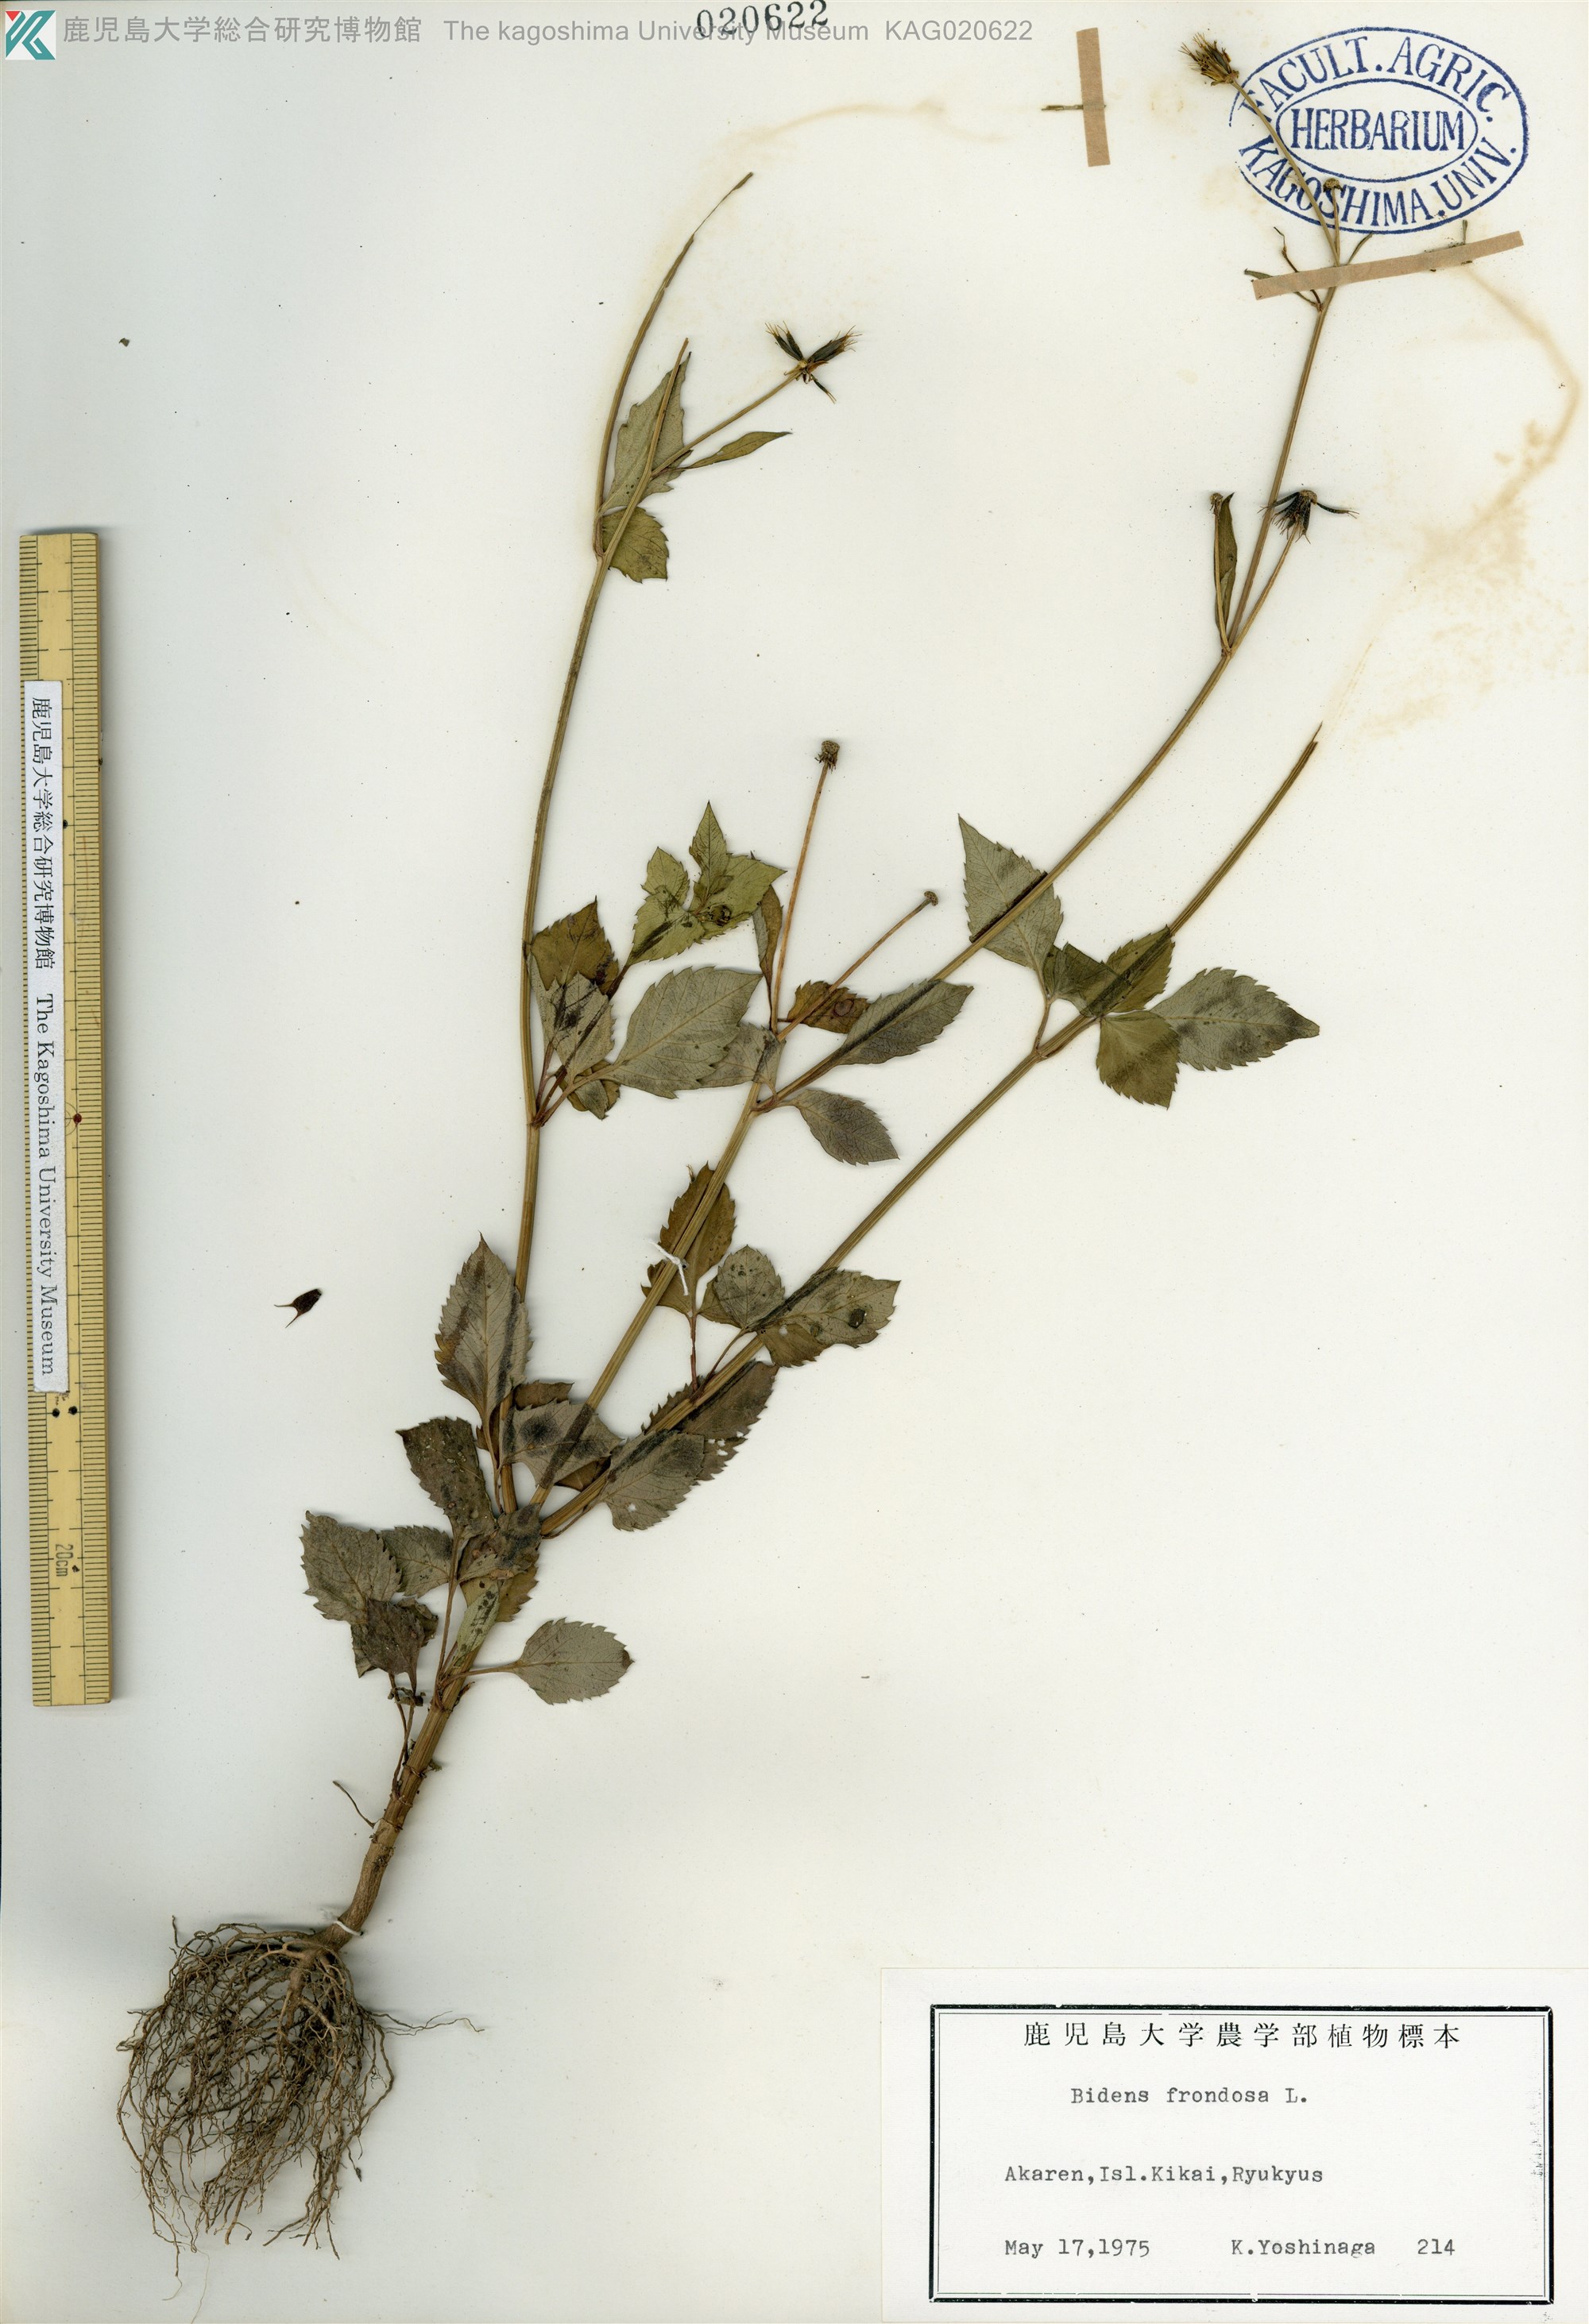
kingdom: Plantae
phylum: Tracheophyta
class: Magnoliopsida
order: Asterales
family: Asteraceae
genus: Bidens
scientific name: Bidens frondosa
